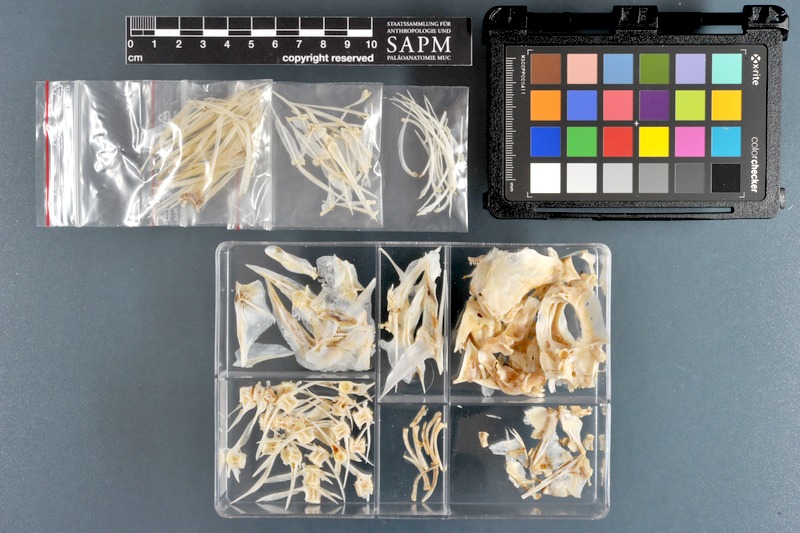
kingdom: Animalia
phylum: Chordata
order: Perciformes
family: Sparidae
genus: Rhabdosargus
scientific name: Rhabdosargus sarba
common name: Goldlined seabream
